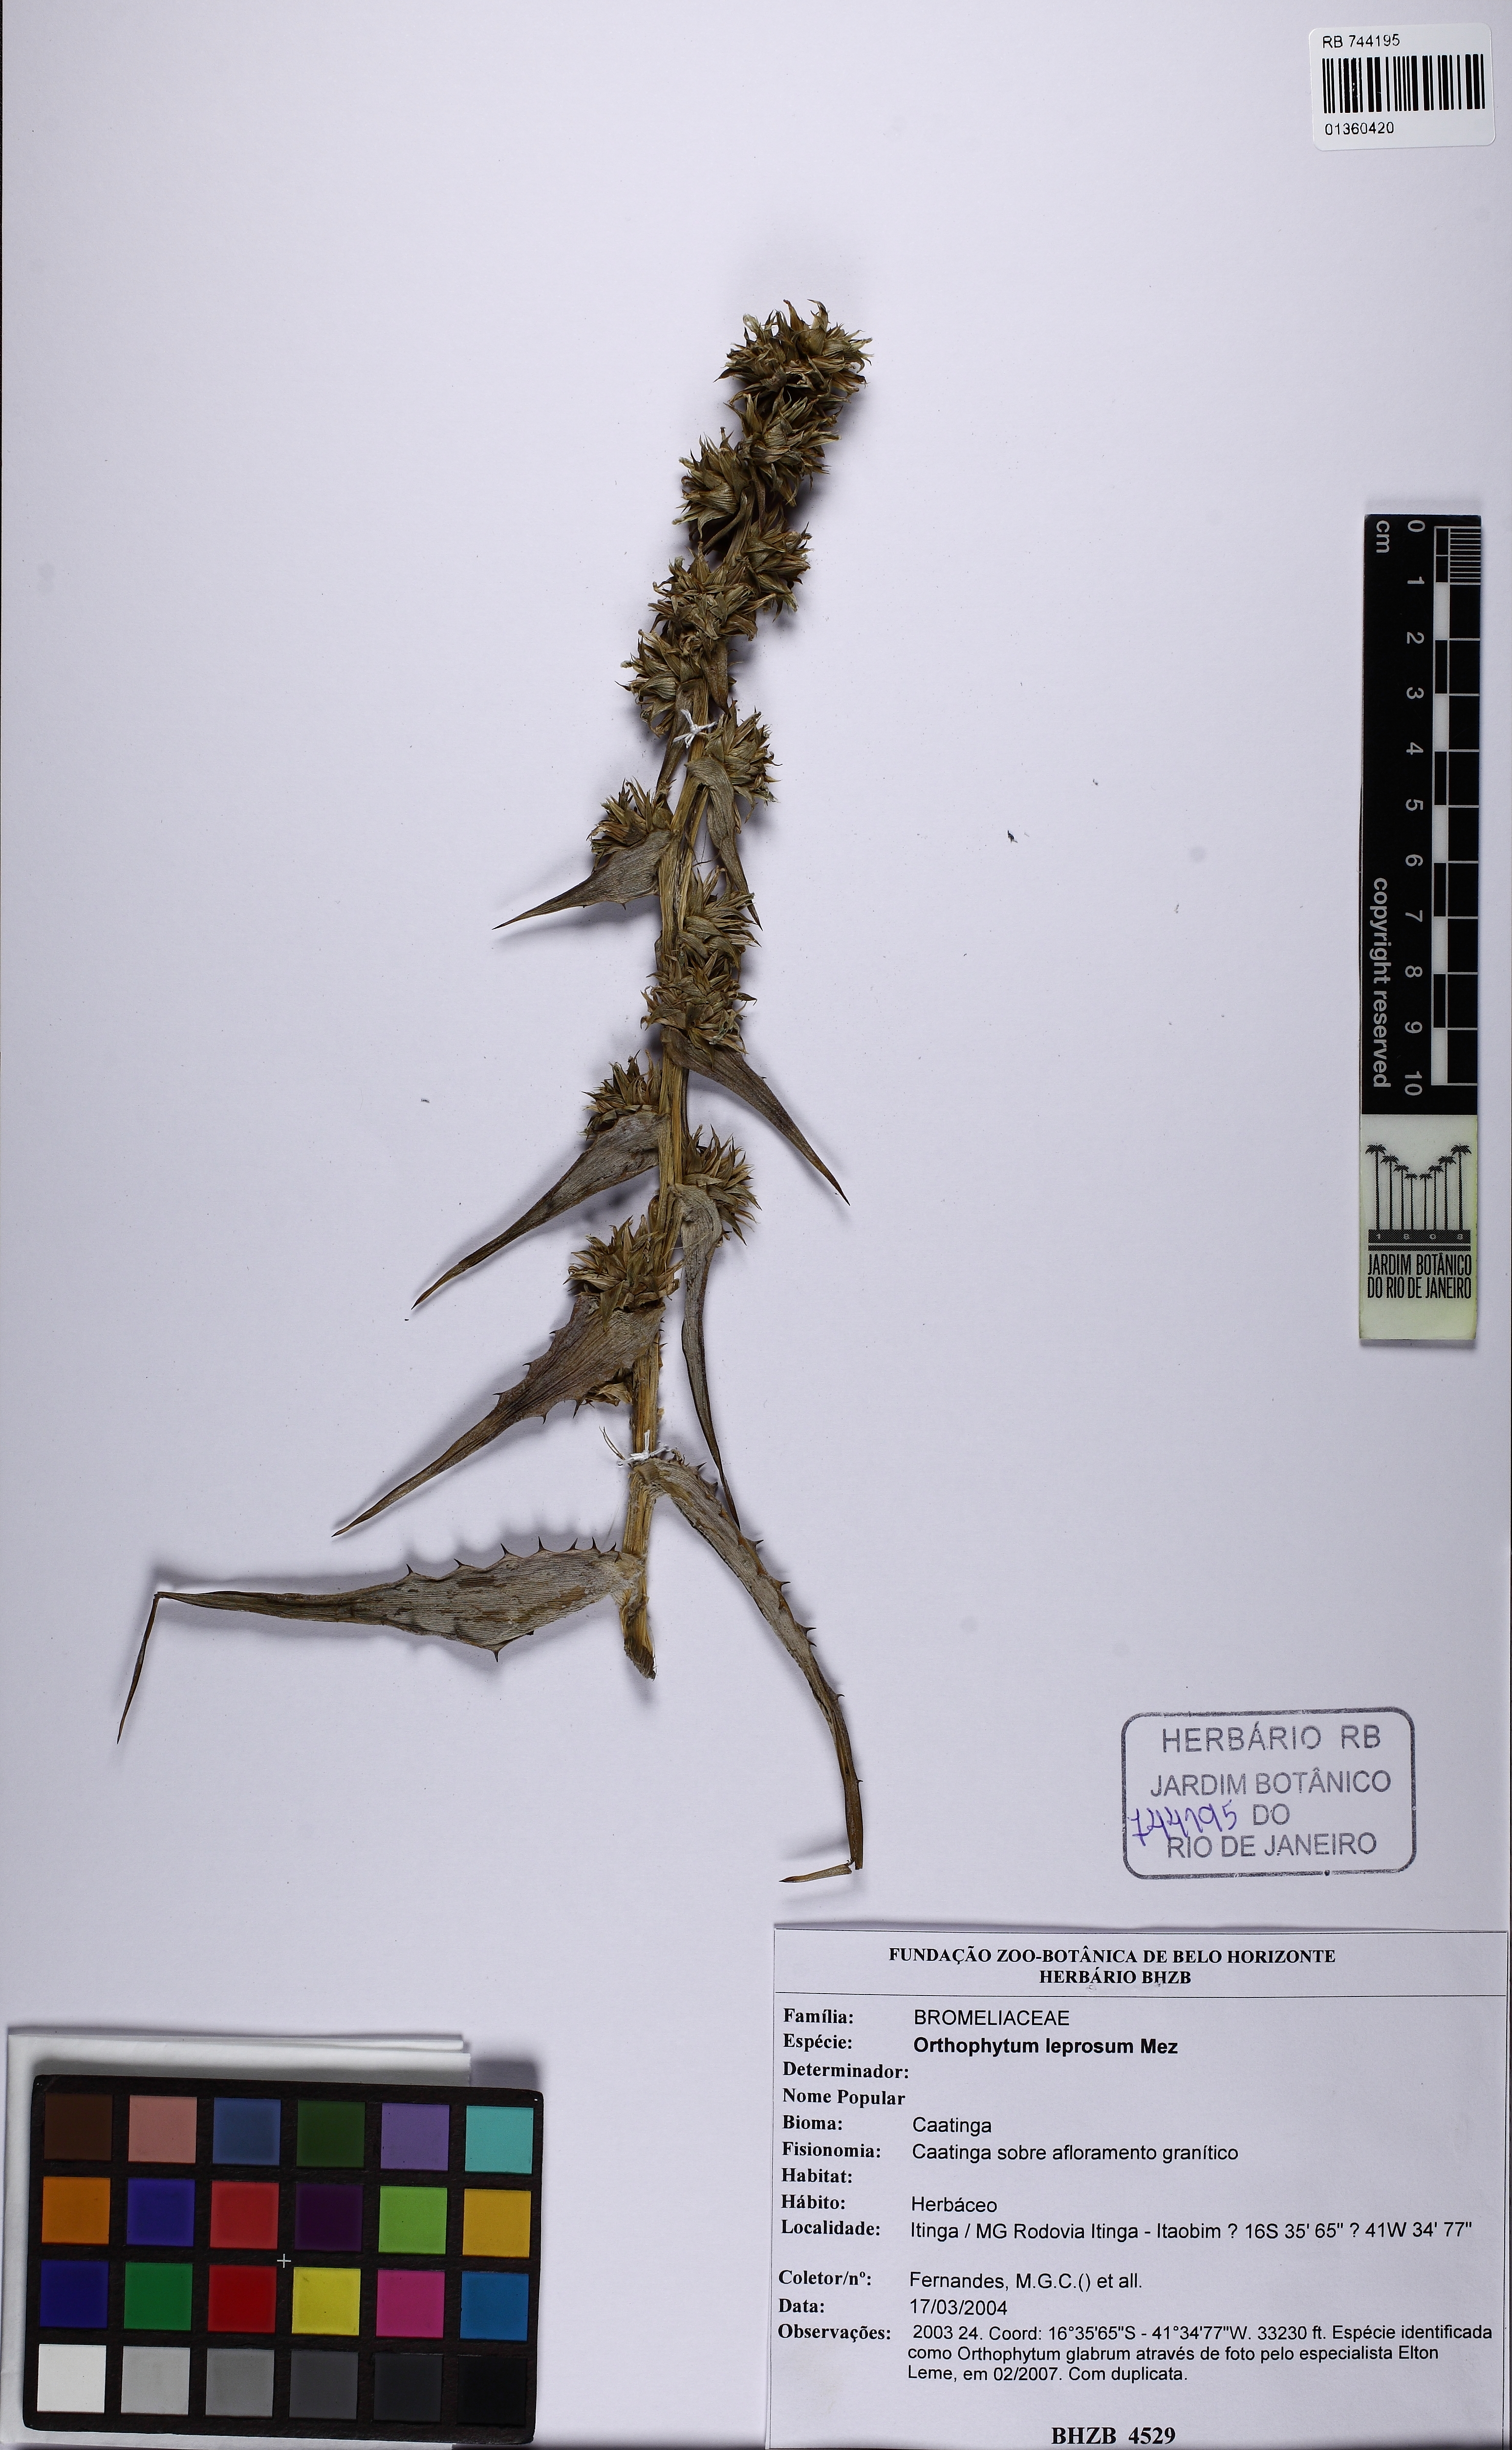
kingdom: Plantae
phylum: Tracheophyta
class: Liliopsida
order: Poales
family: Bromeliaceae
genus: Orthophytum
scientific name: Orthophytum leprosum
